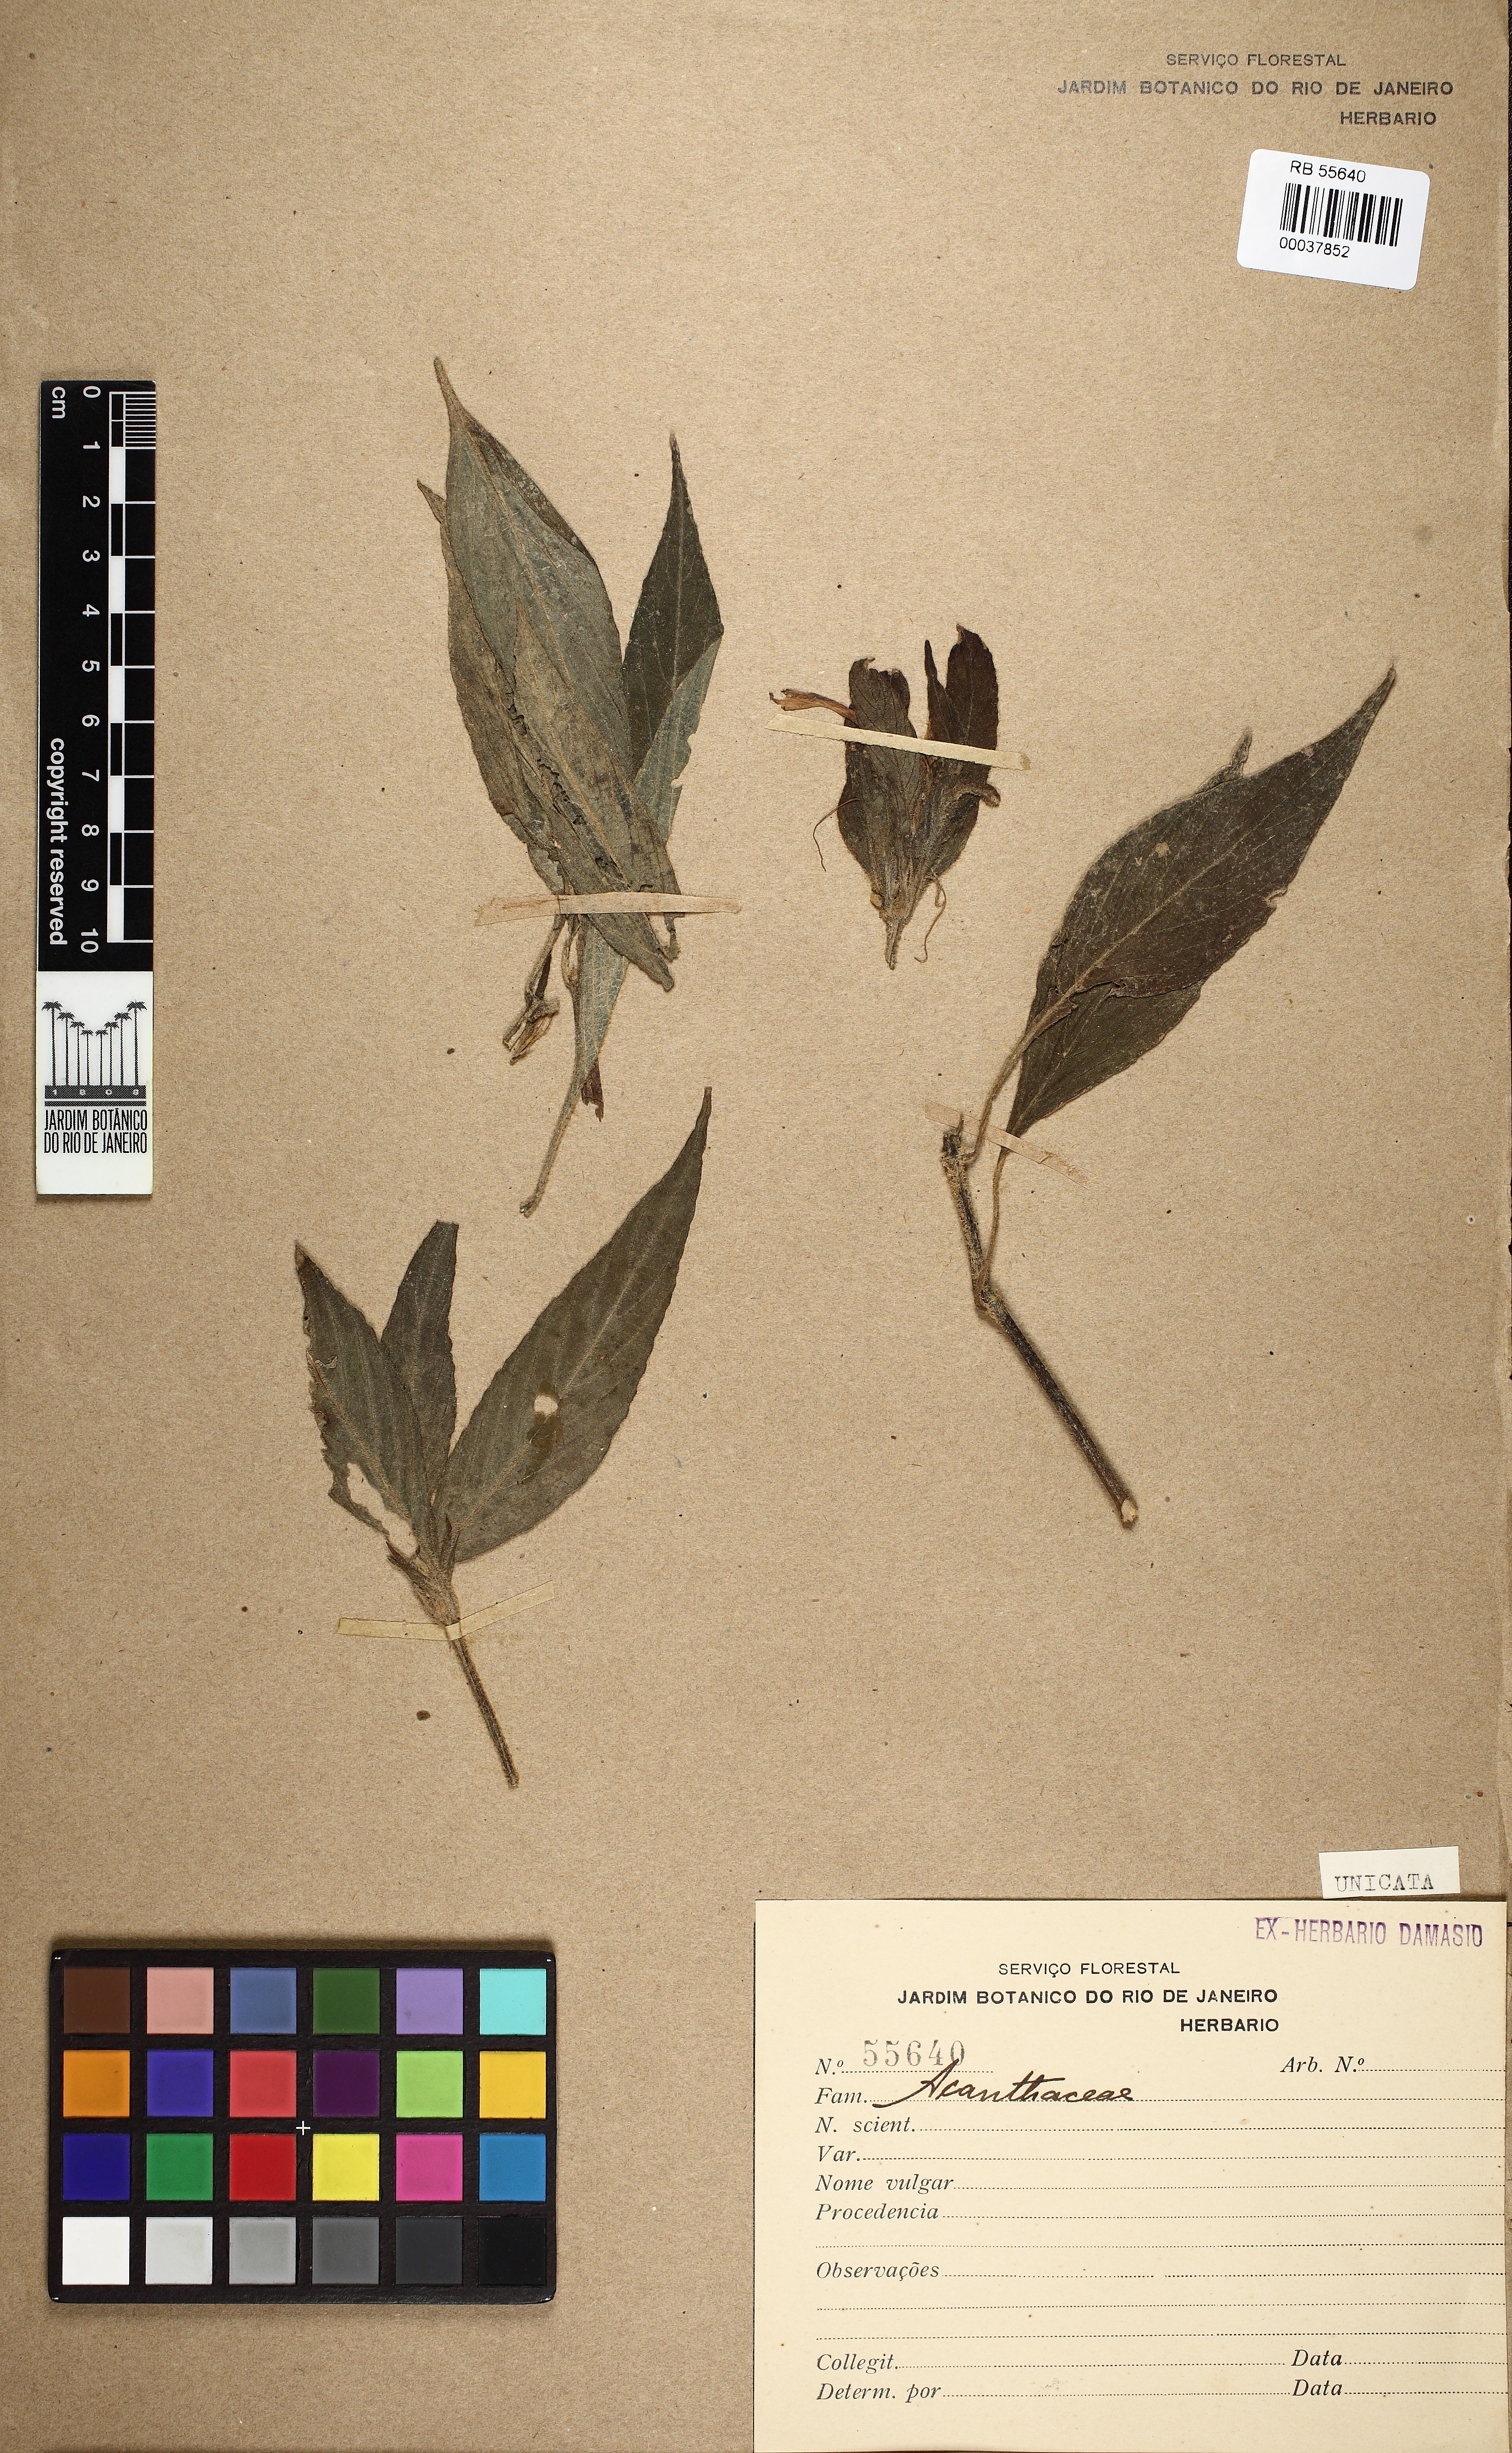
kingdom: Plantae
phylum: Tracheophyta
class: Magnoliopsida
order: Lamiales
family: Acanthaceae
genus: Ruellia
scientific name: Ruellia jussieuoides
